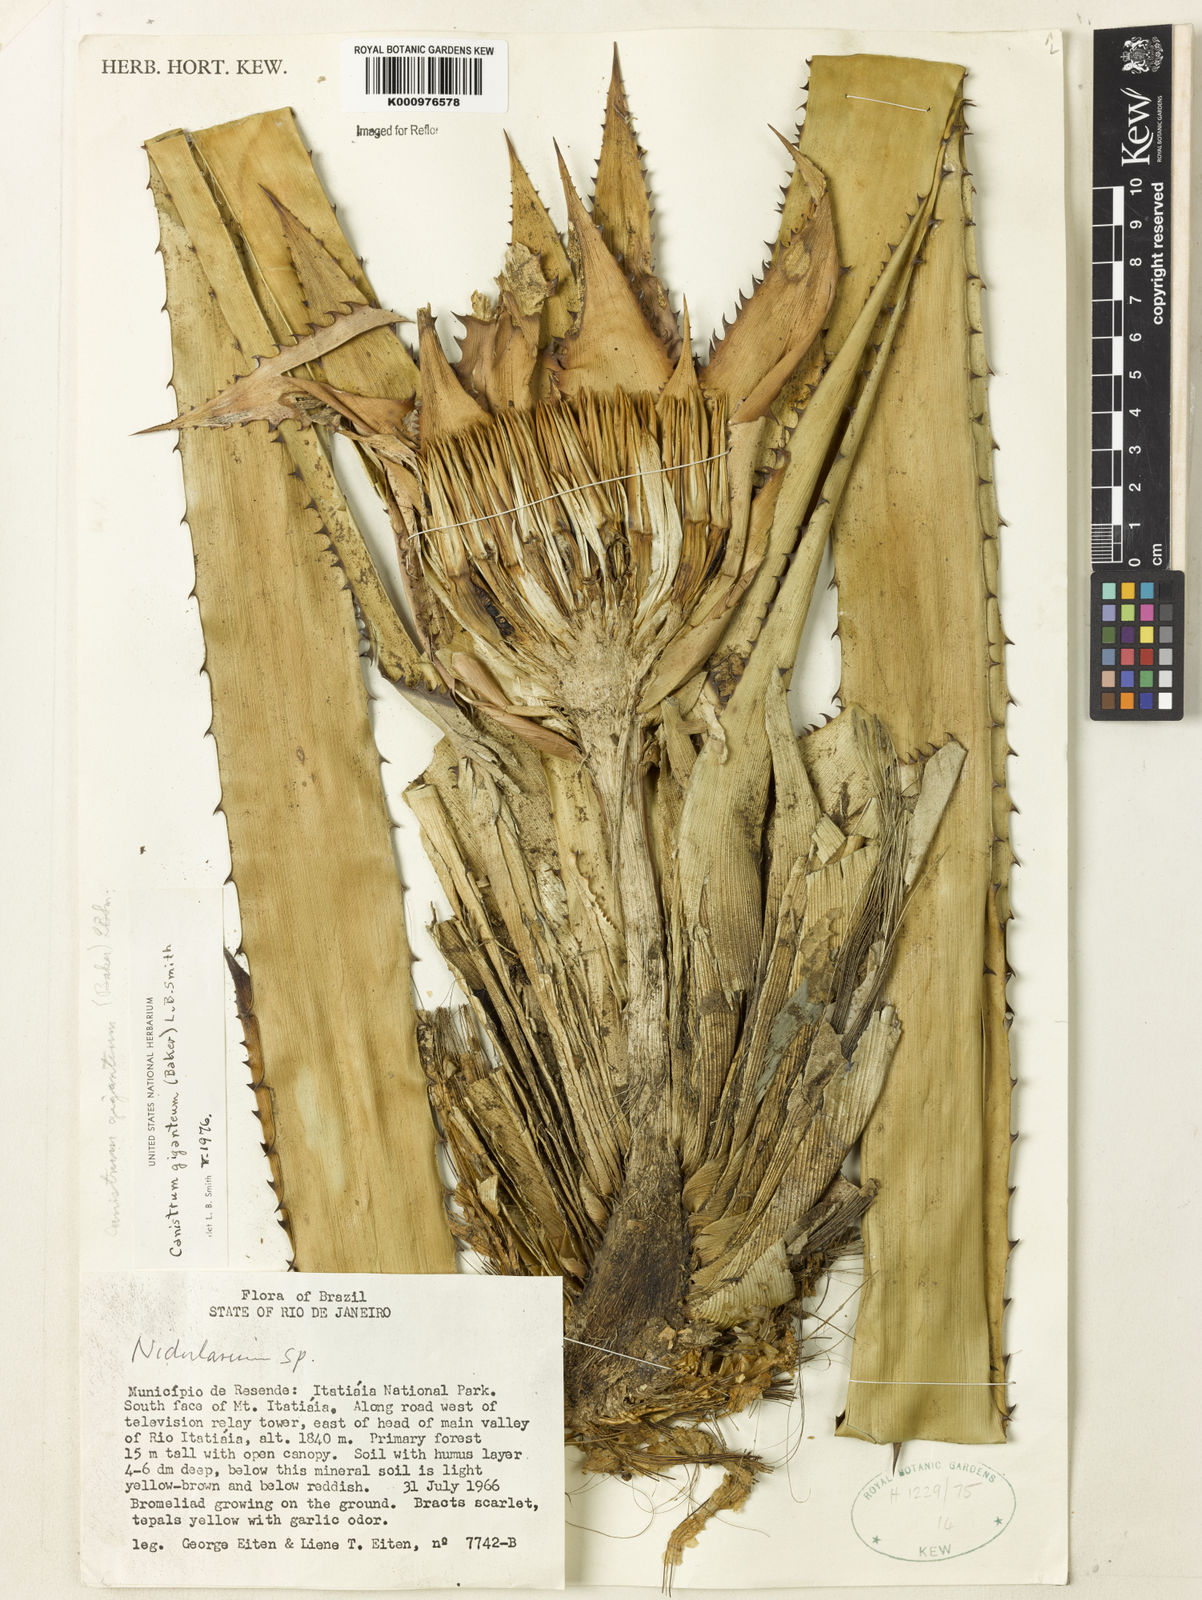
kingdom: Plantae
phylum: Tracheophyta
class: Liliopsida
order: Poales
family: Bromeliaceae
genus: Wittrockia
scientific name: Wittrockia gigantea
